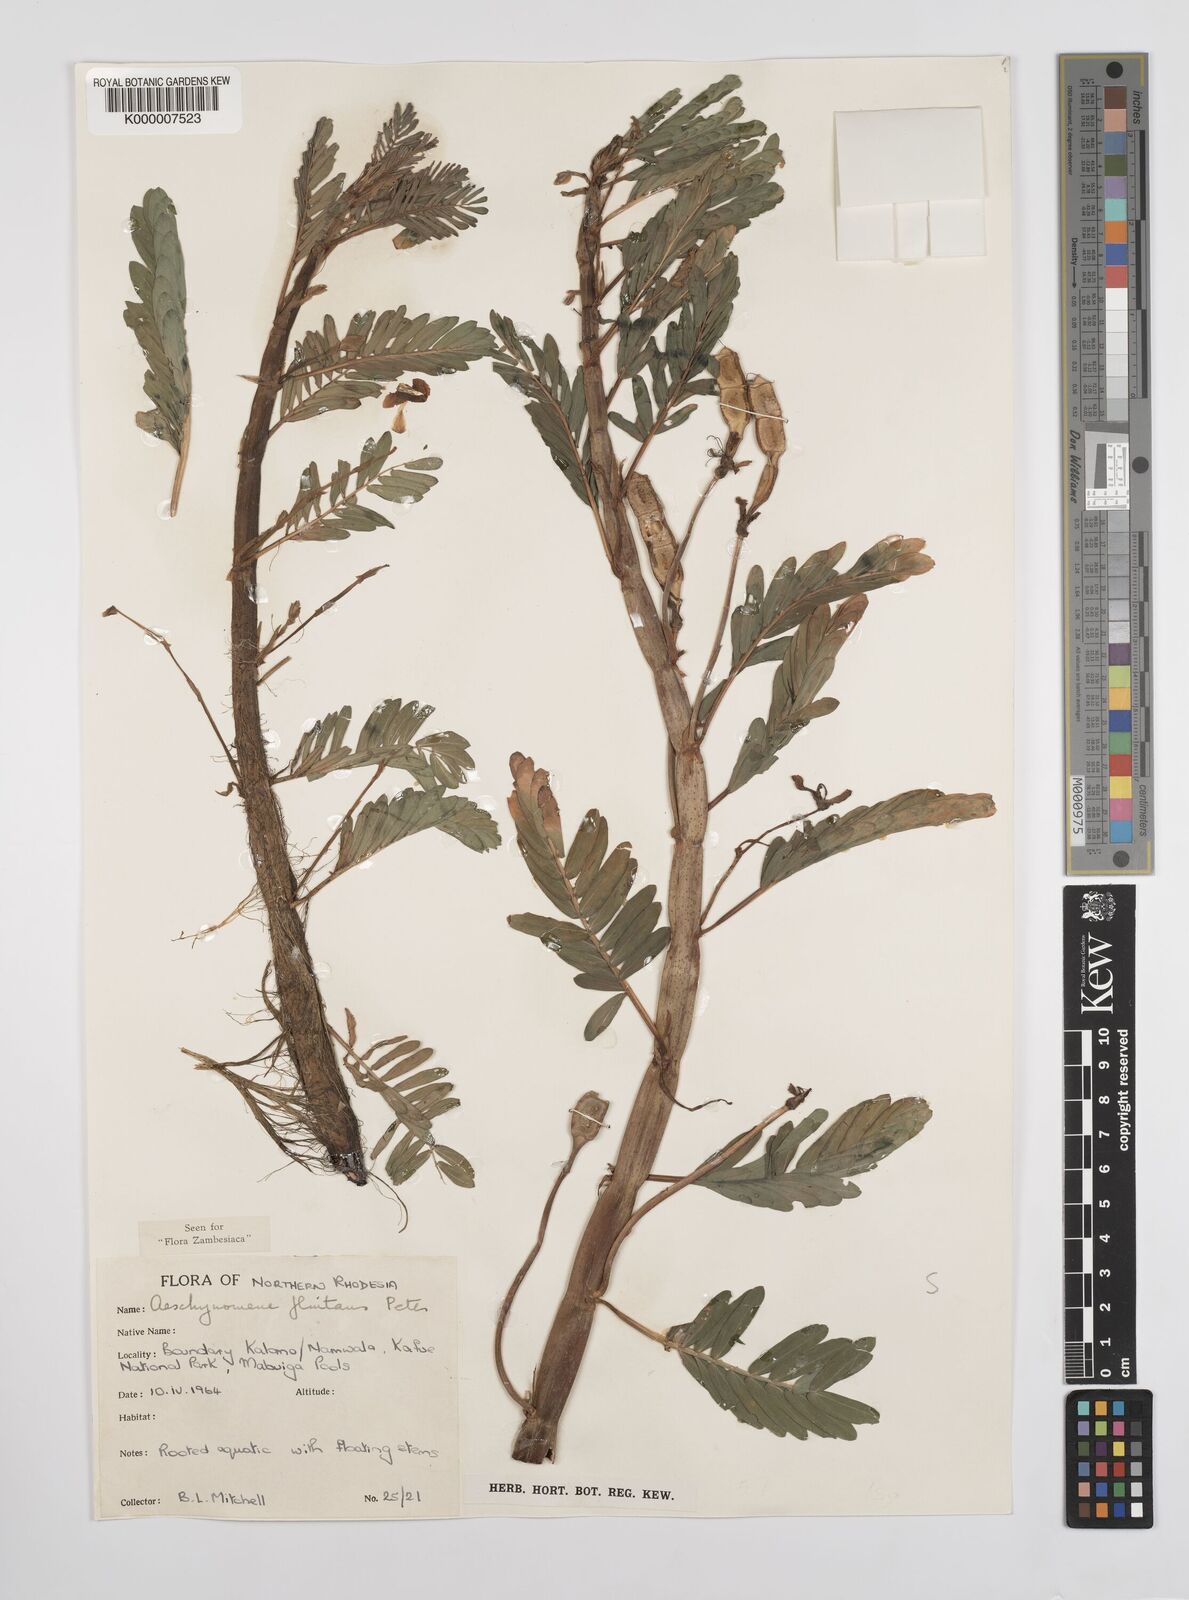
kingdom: Plantae
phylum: Tracheophyta
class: Magnoliopsida
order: Fabales
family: Fabaceae
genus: Aeschynomene
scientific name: Aeschynomene fluitans
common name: Giant water sensitive plant
